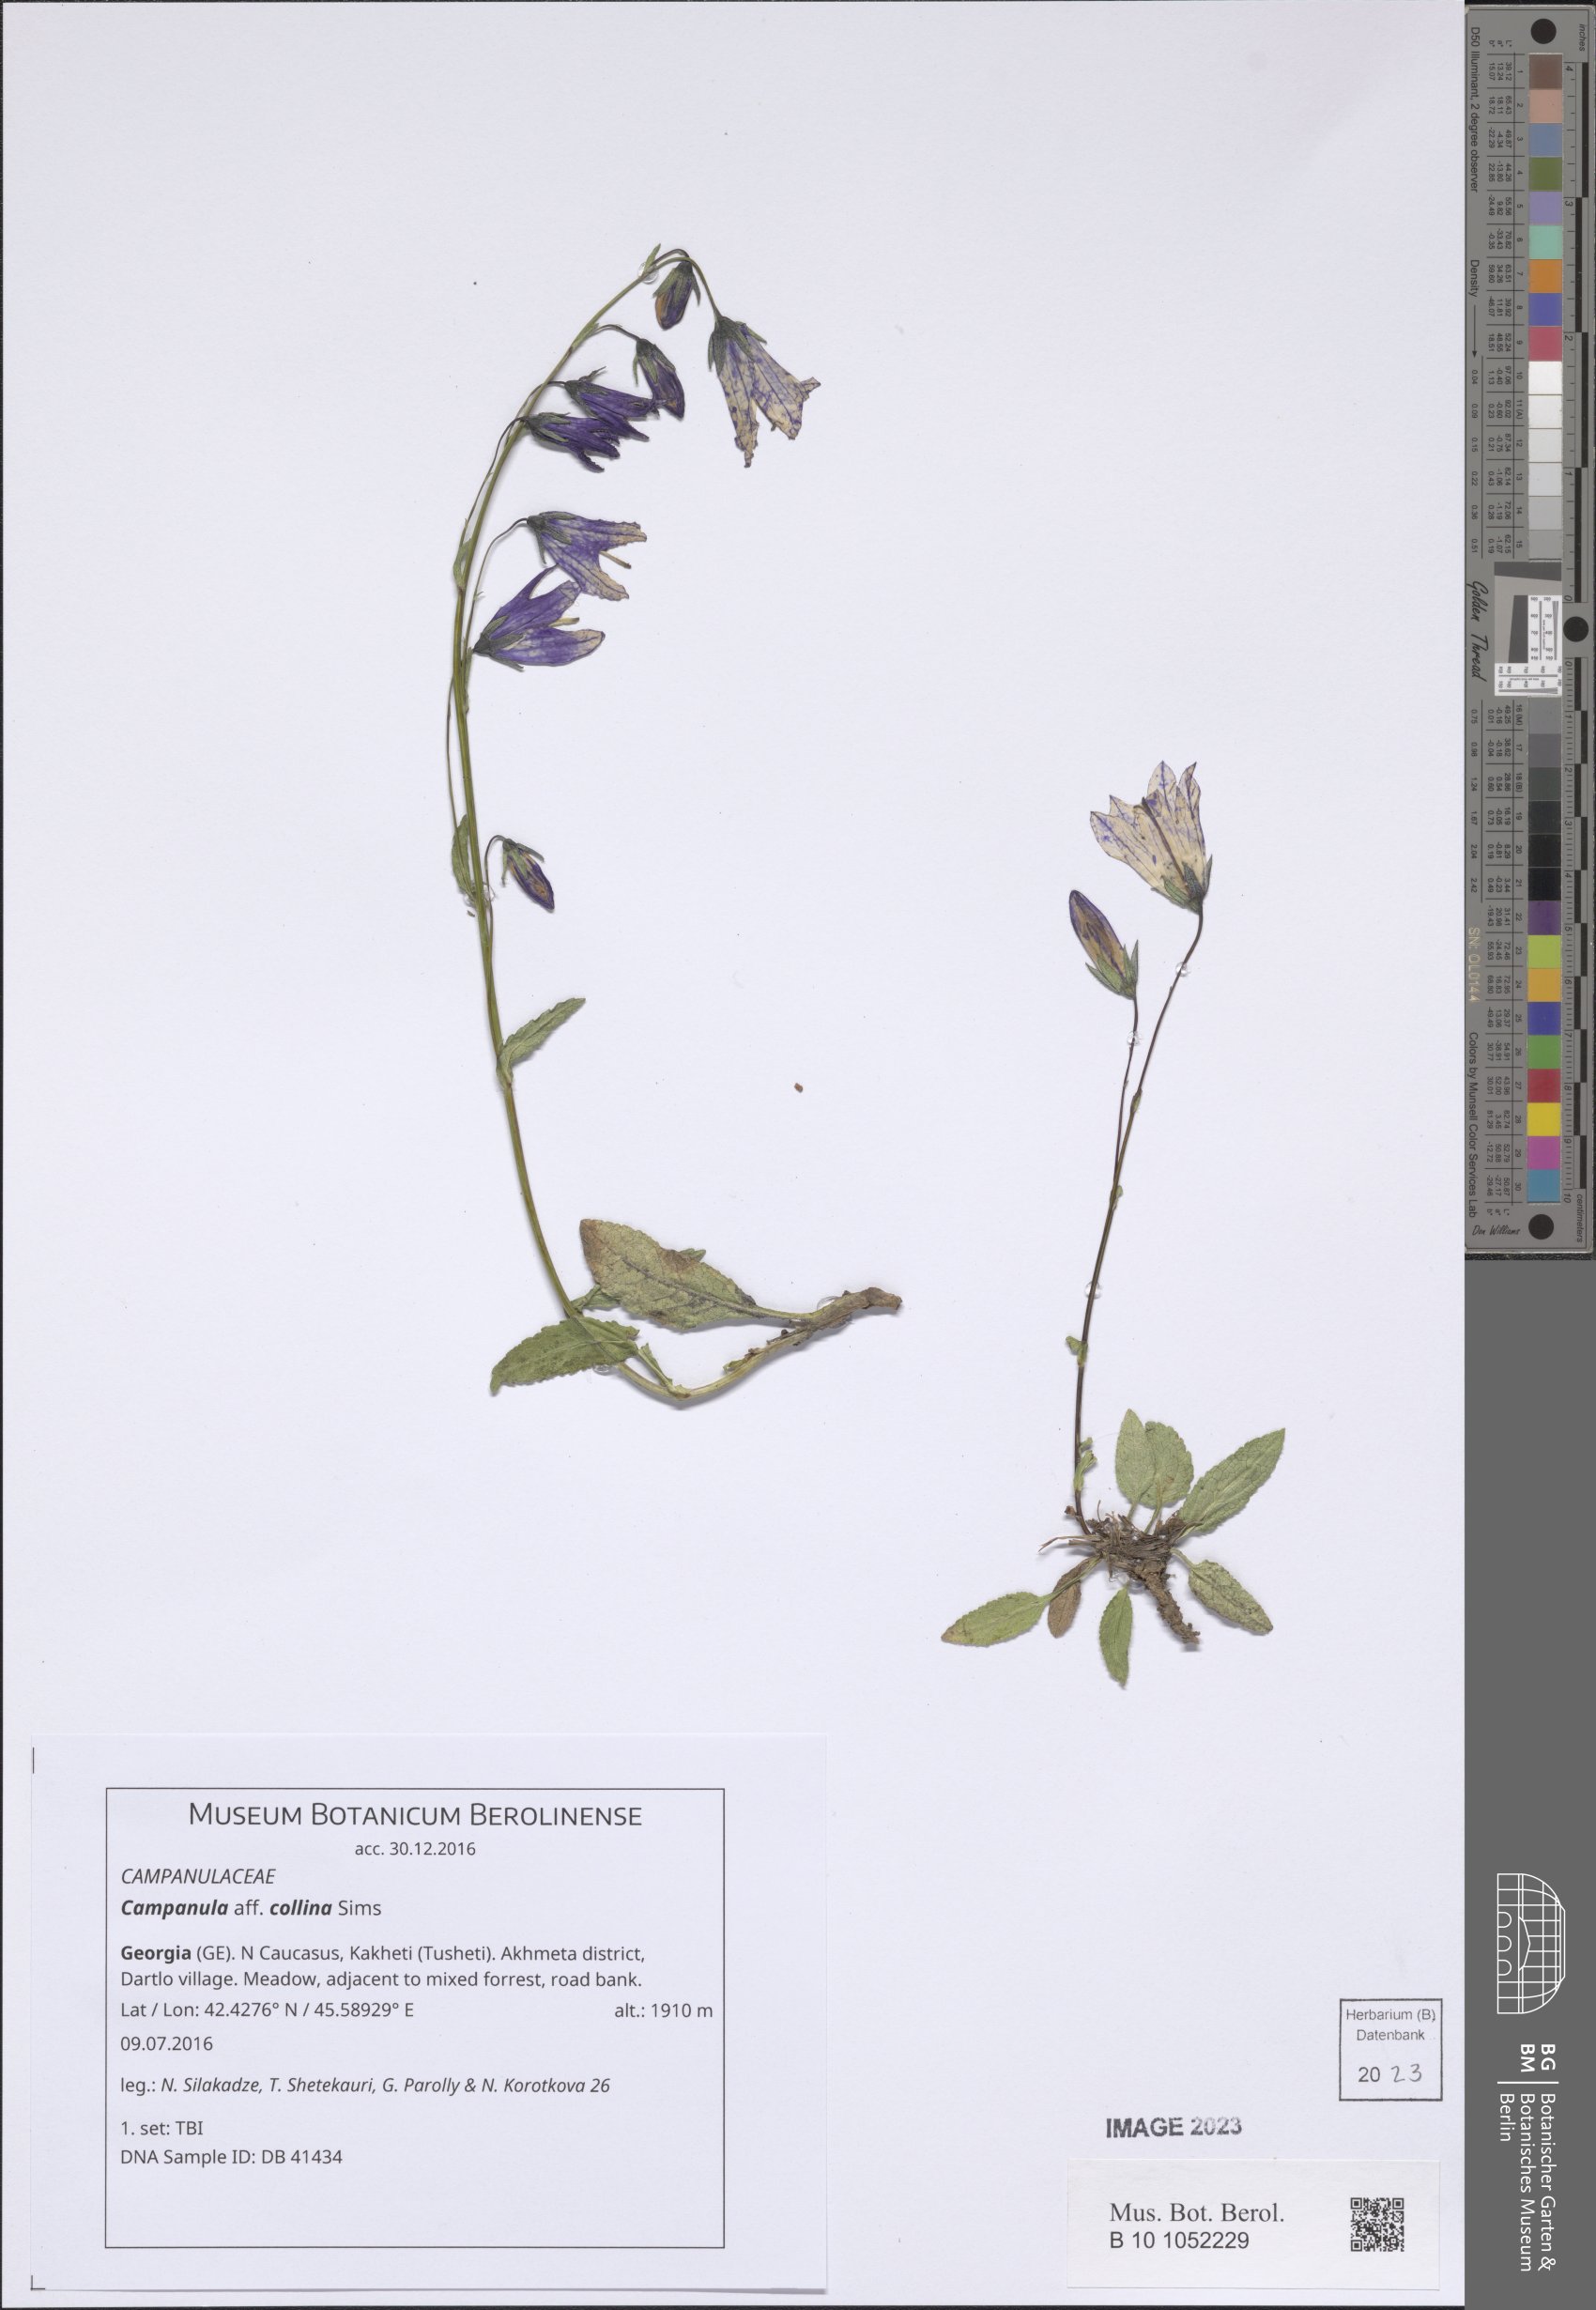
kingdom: Plantae
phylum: Tracheophyta
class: Magnoliopsida
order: Asterales
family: Campanulaceae
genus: Campanula
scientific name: Campanula collina
